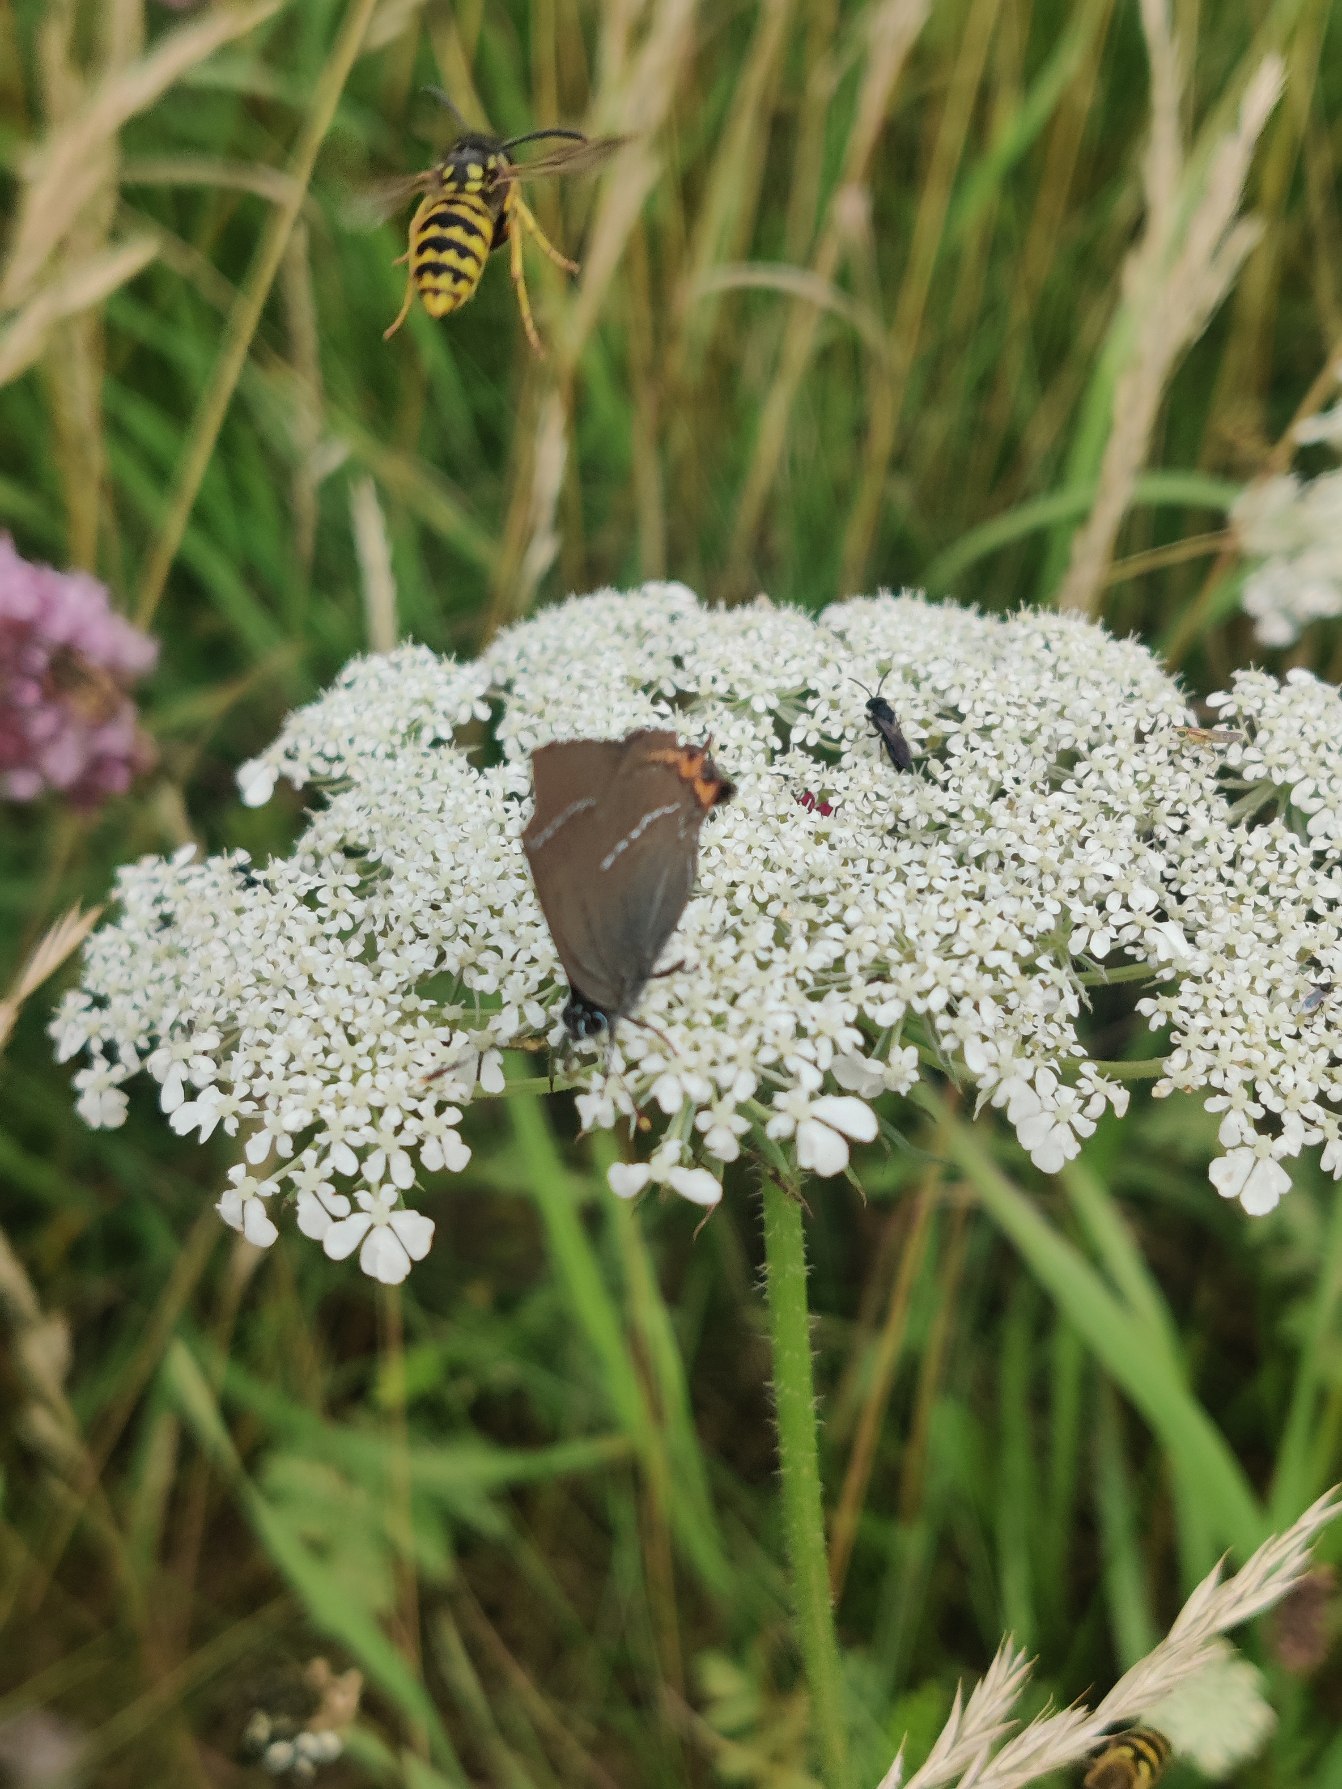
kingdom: Animalia
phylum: Arthropoda
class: Insecta
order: Lepidoptera
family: Lycaenidae
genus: Satyrium
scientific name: Satyrium w-album
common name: Det hvide W
